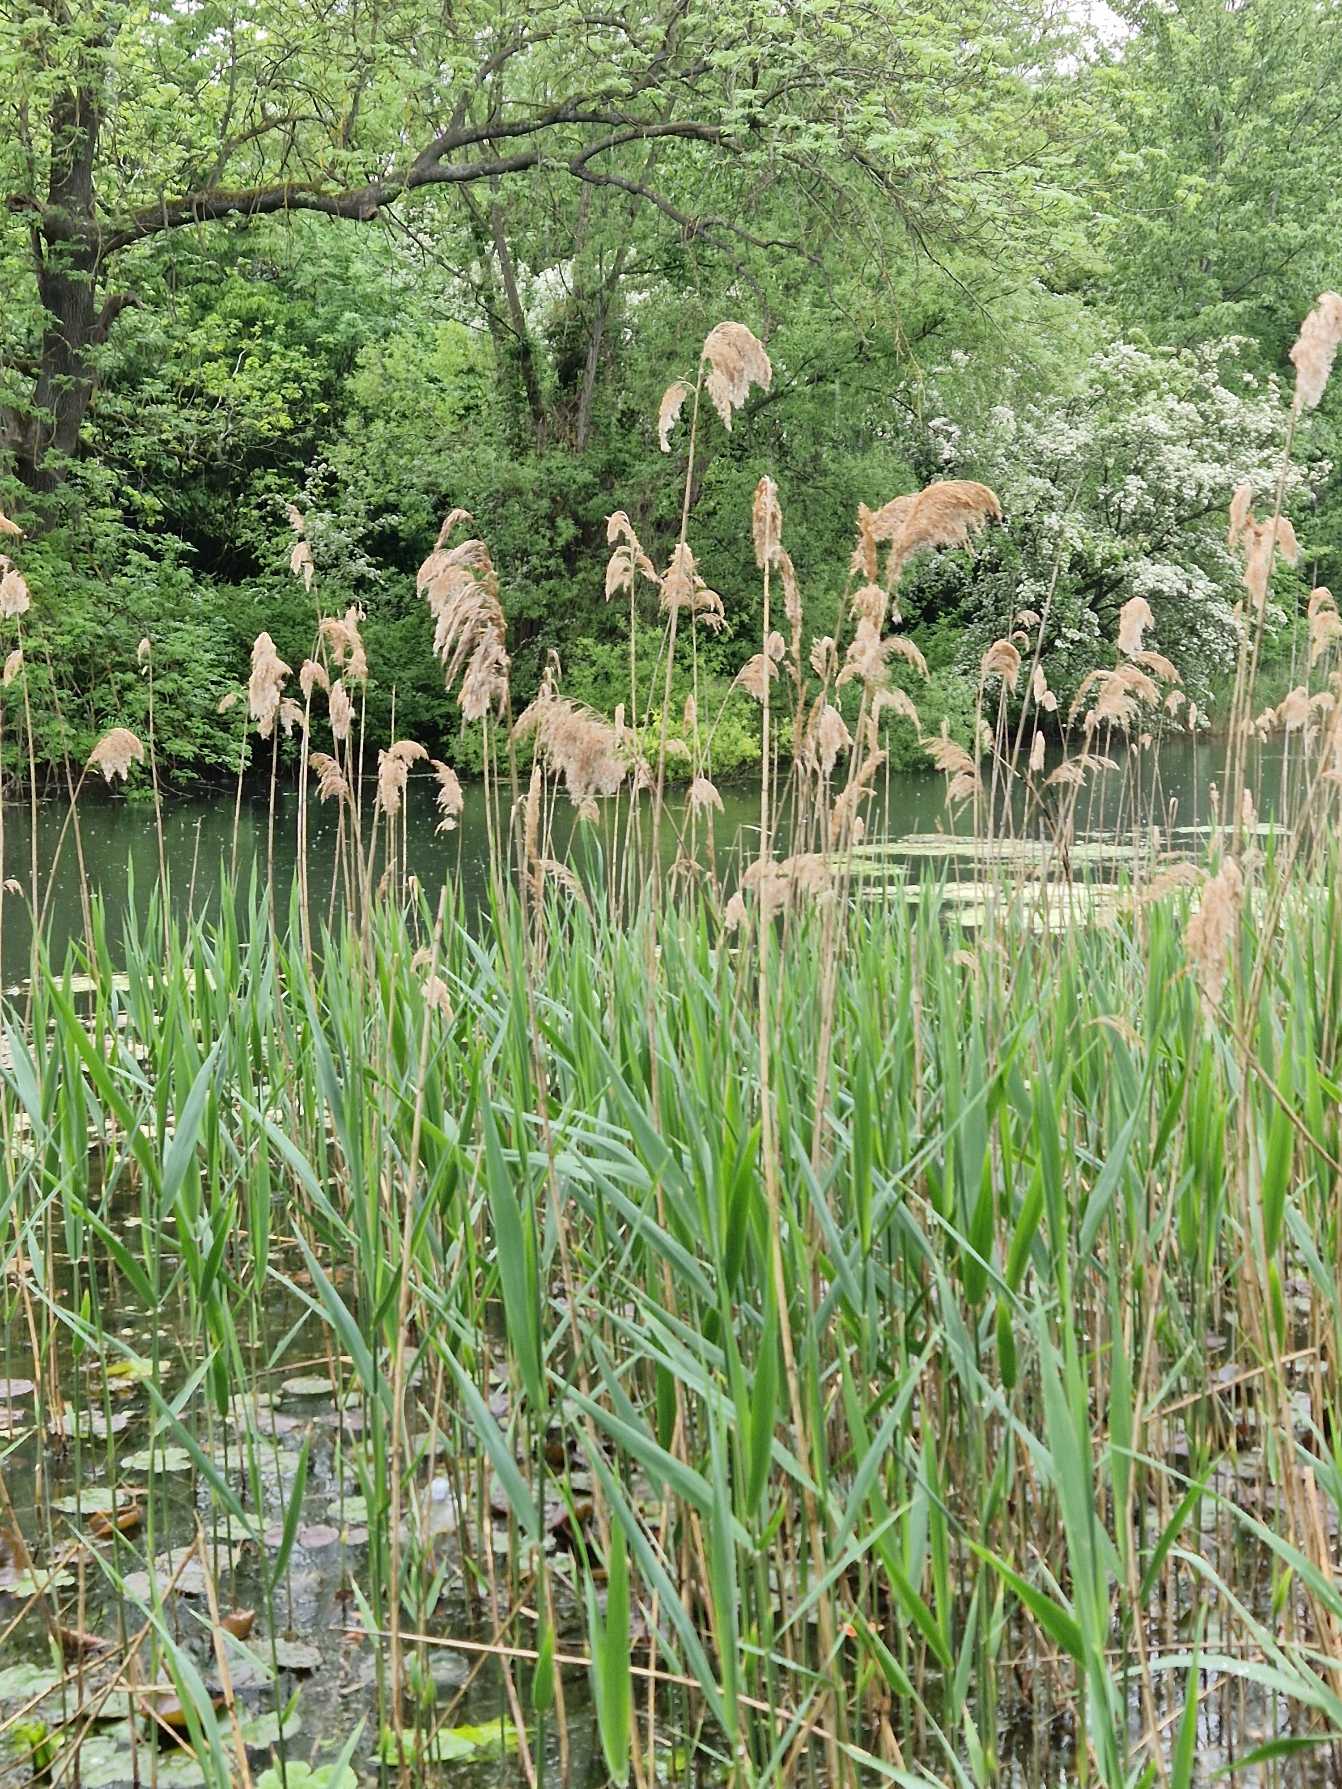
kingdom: Plantae
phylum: Tracheophyta
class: Liliopsida
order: Poales
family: Poaceae
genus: Phragmites
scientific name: Phragmites australis
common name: Tagrør
